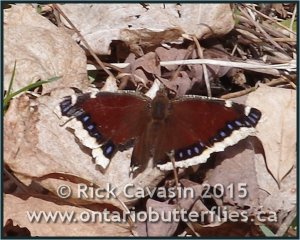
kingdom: Animalia
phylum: Arthropoda
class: Insecta
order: Lepidoptera
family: Nymphalidae
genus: Nymphalis
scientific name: Nymphalis antiopa
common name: Mourning Cloak
